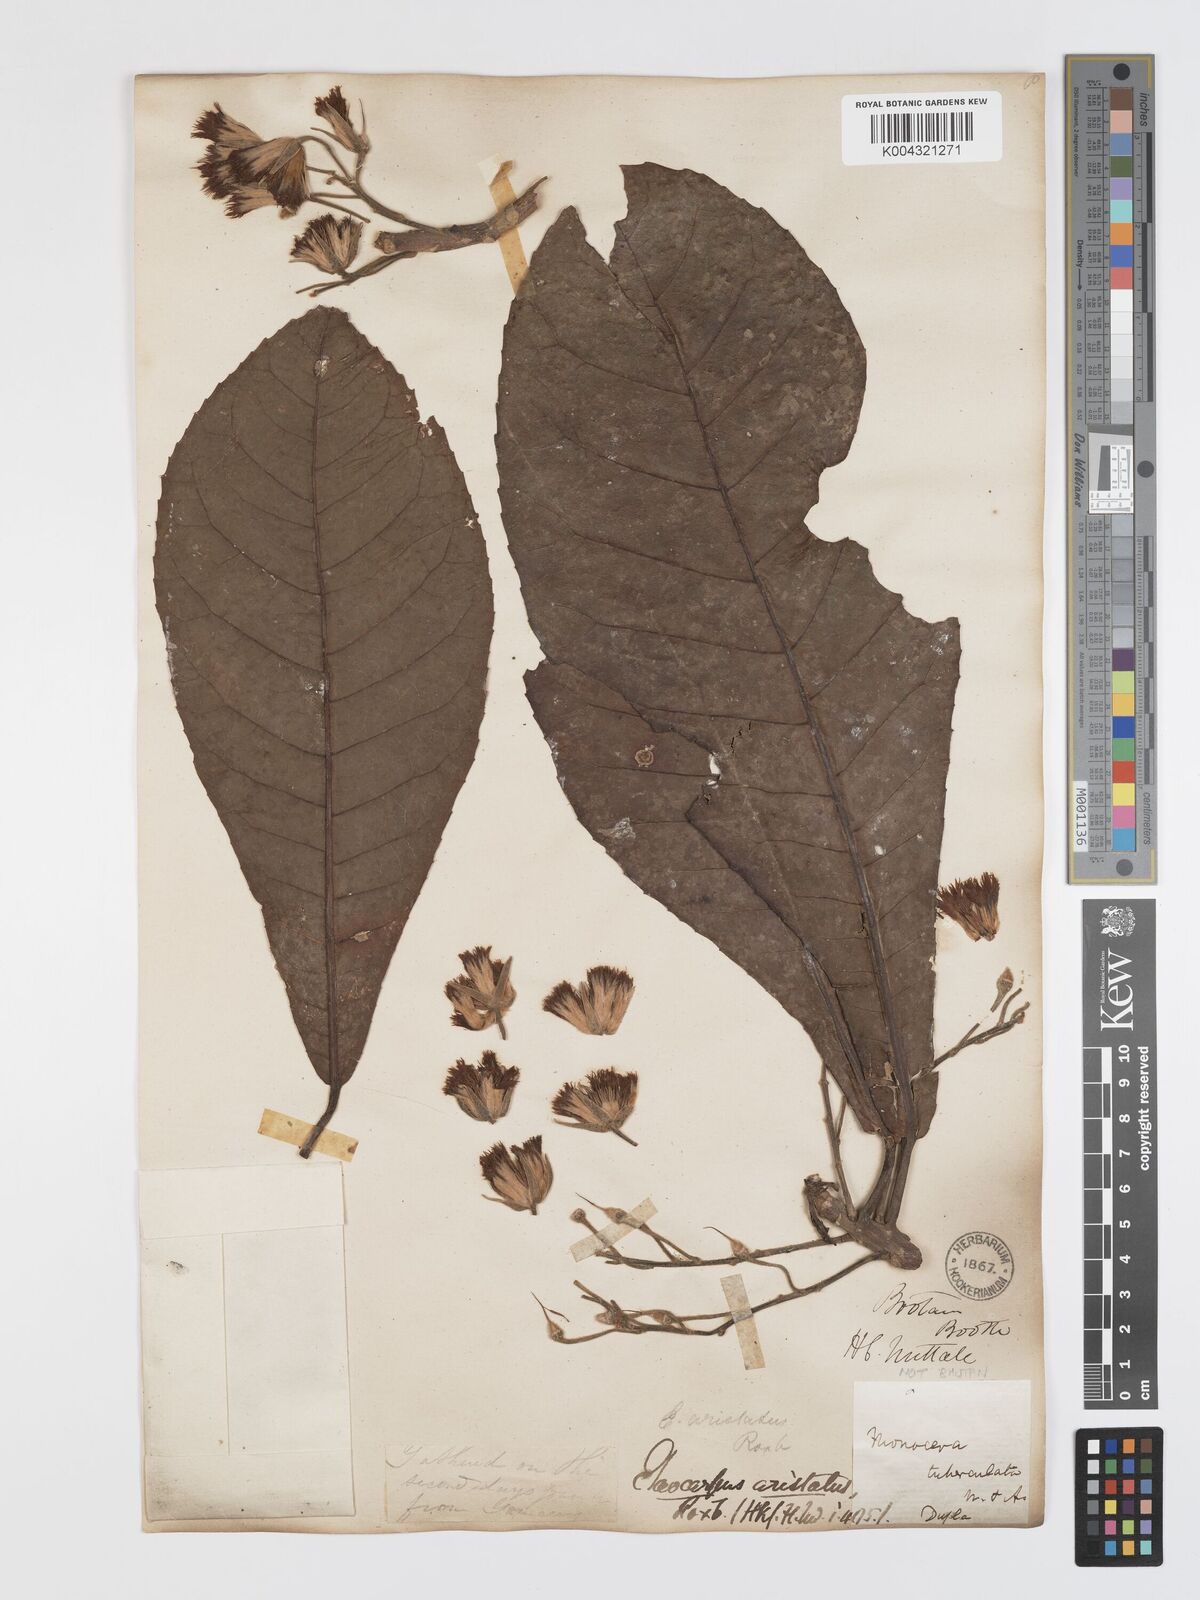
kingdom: Plantae
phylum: Tracheophyta
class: Magnoliopsida
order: Oxalidales
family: Elaeocarpaceae
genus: Elaeocarpus
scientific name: Elaeocarpus aristatus
